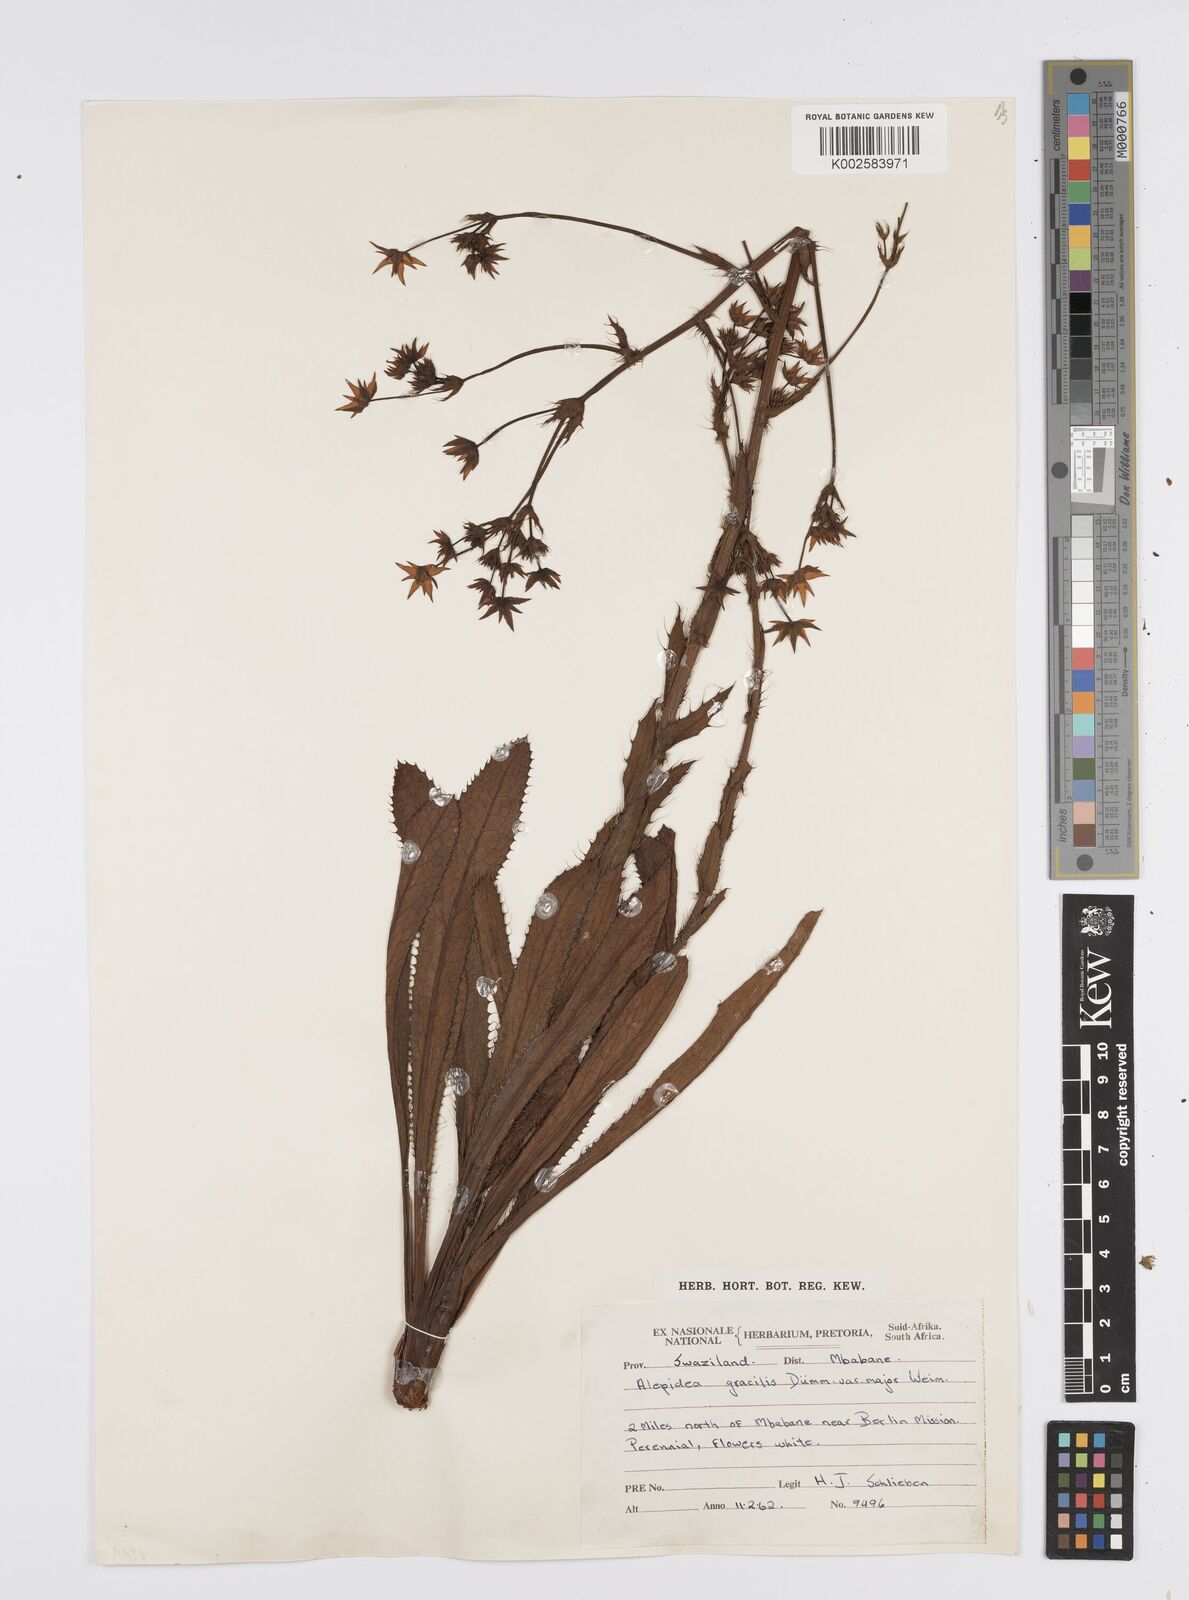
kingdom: Plantae
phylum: Tracheophyta
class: Magnoliopsida
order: Apiales
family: Apiaceae
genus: Alepidea
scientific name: Alepidea
